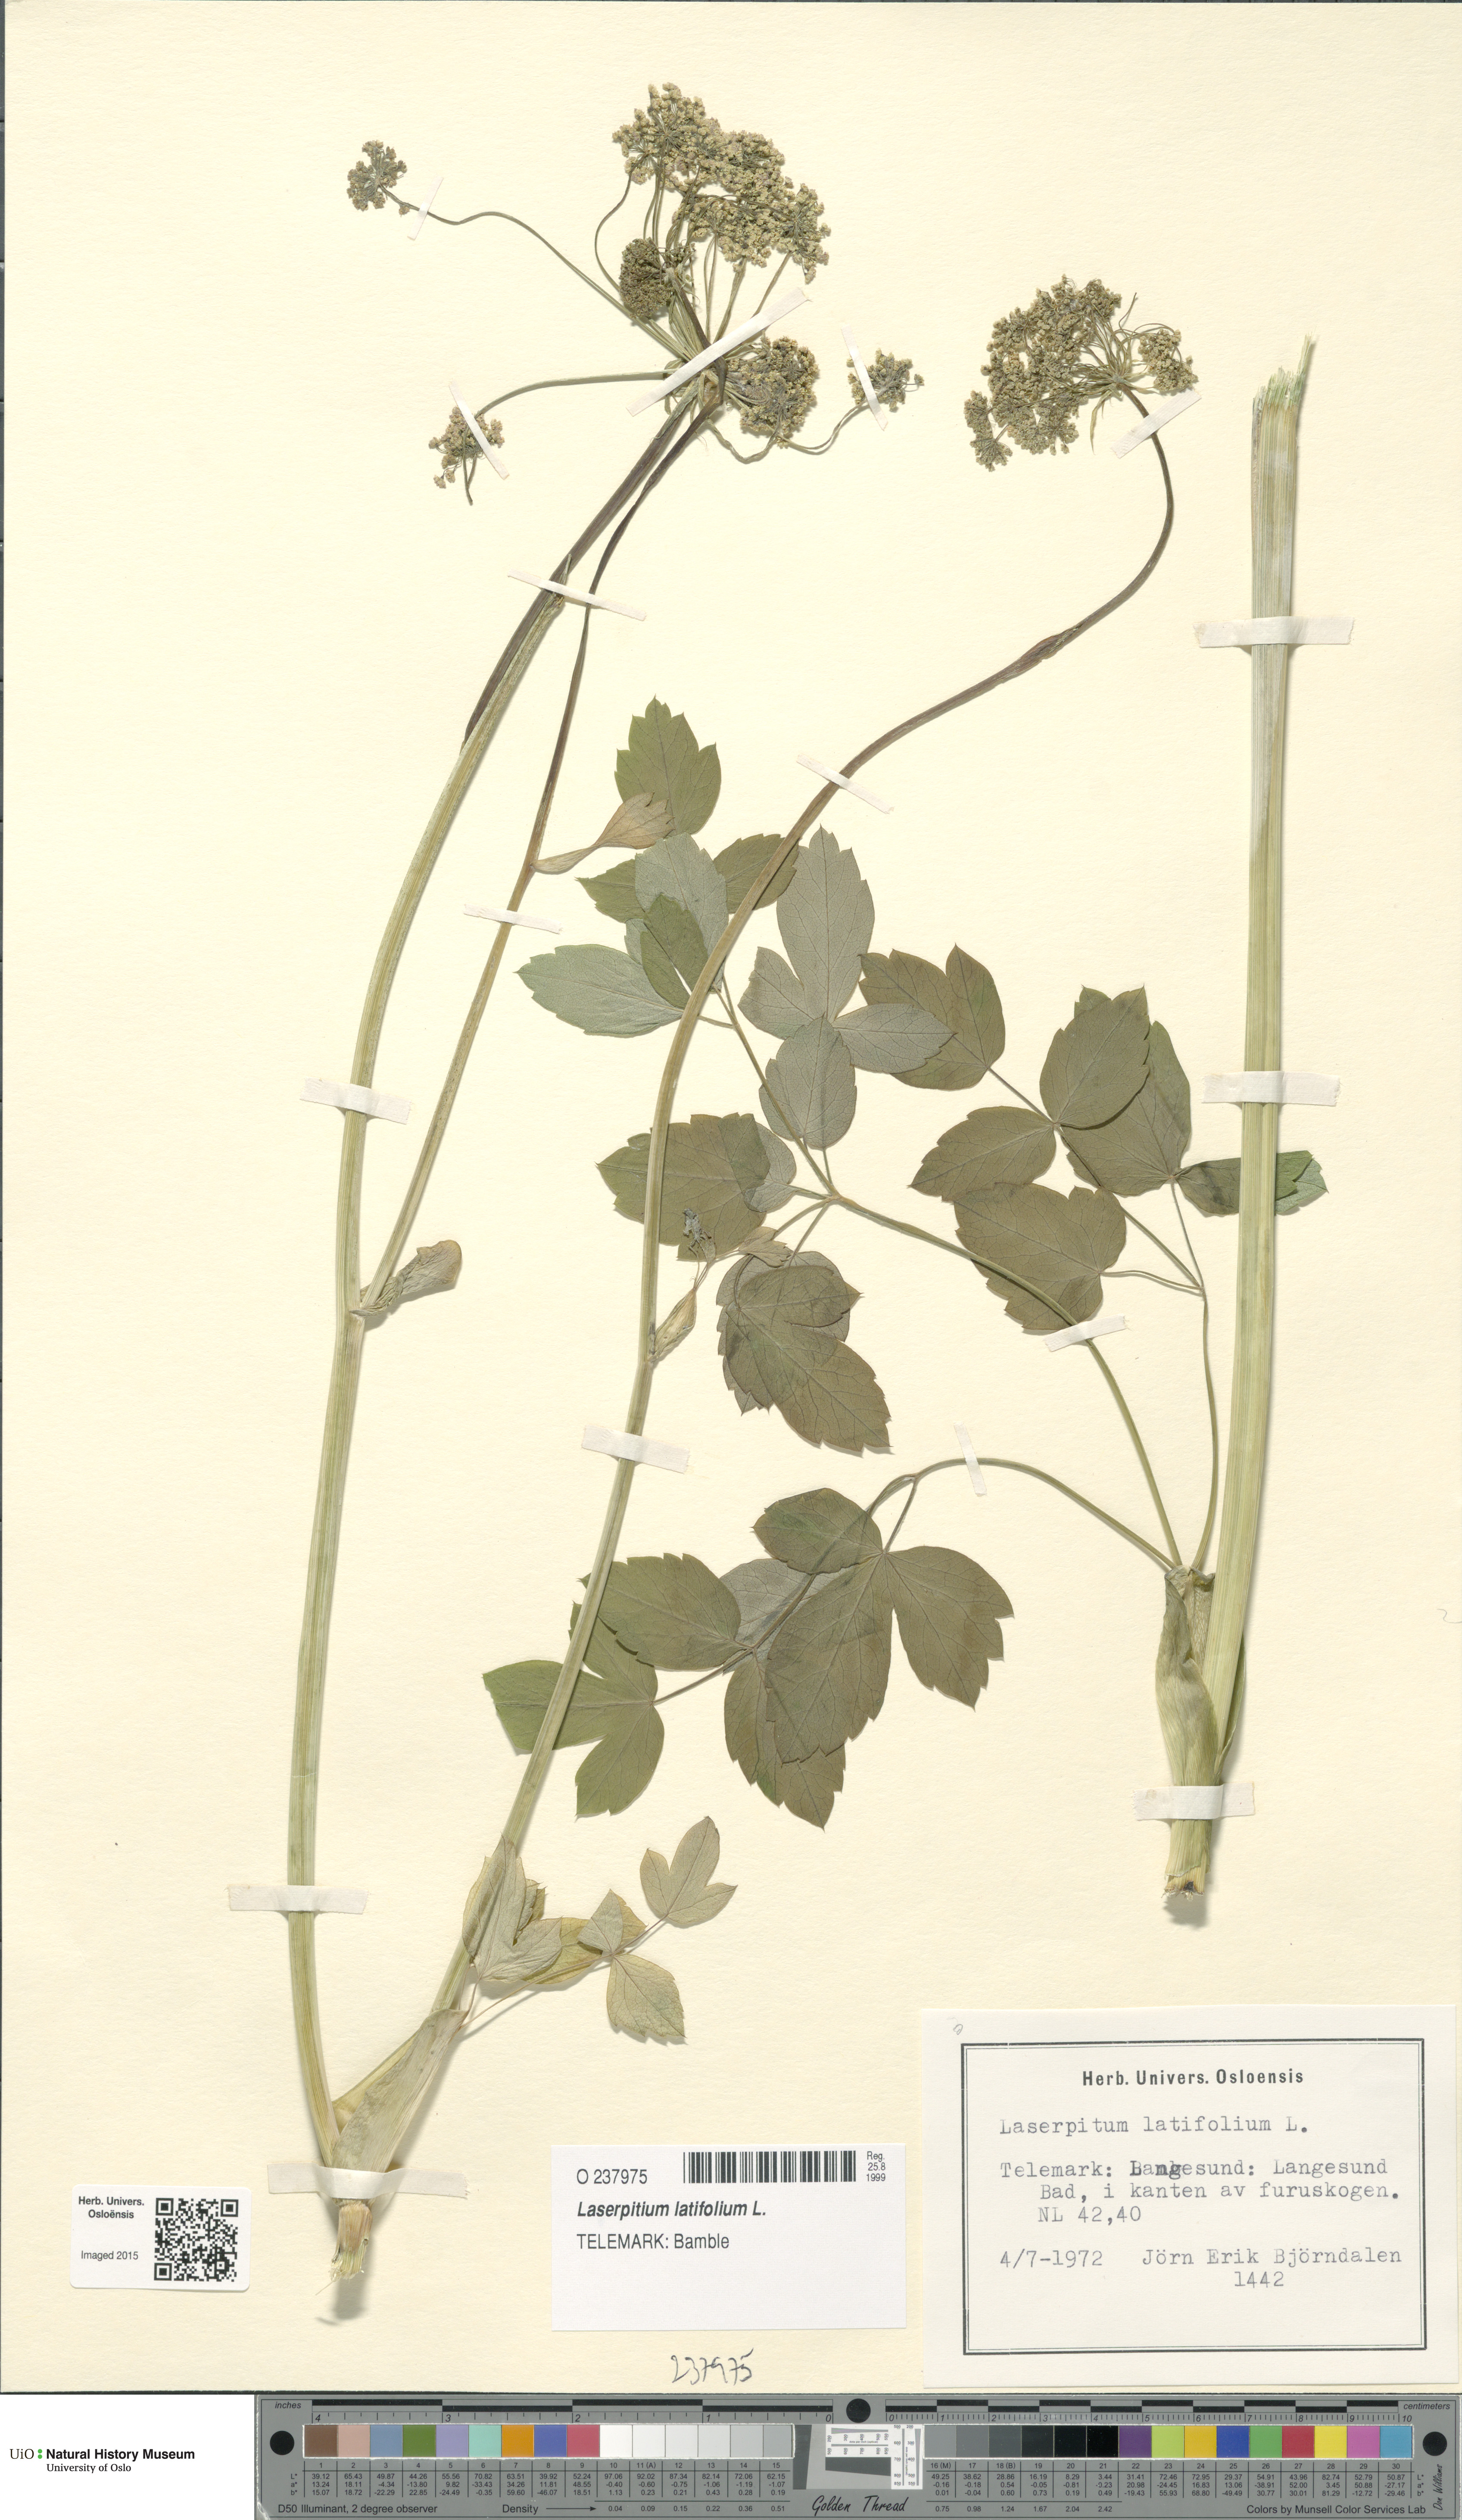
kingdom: Plantae
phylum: Tracheophyta
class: Magnoliopsida
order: Apiales
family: Apiaceae
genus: Laserpitium
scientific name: Laserpitium latifolium
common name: Broadleaf sermountain
